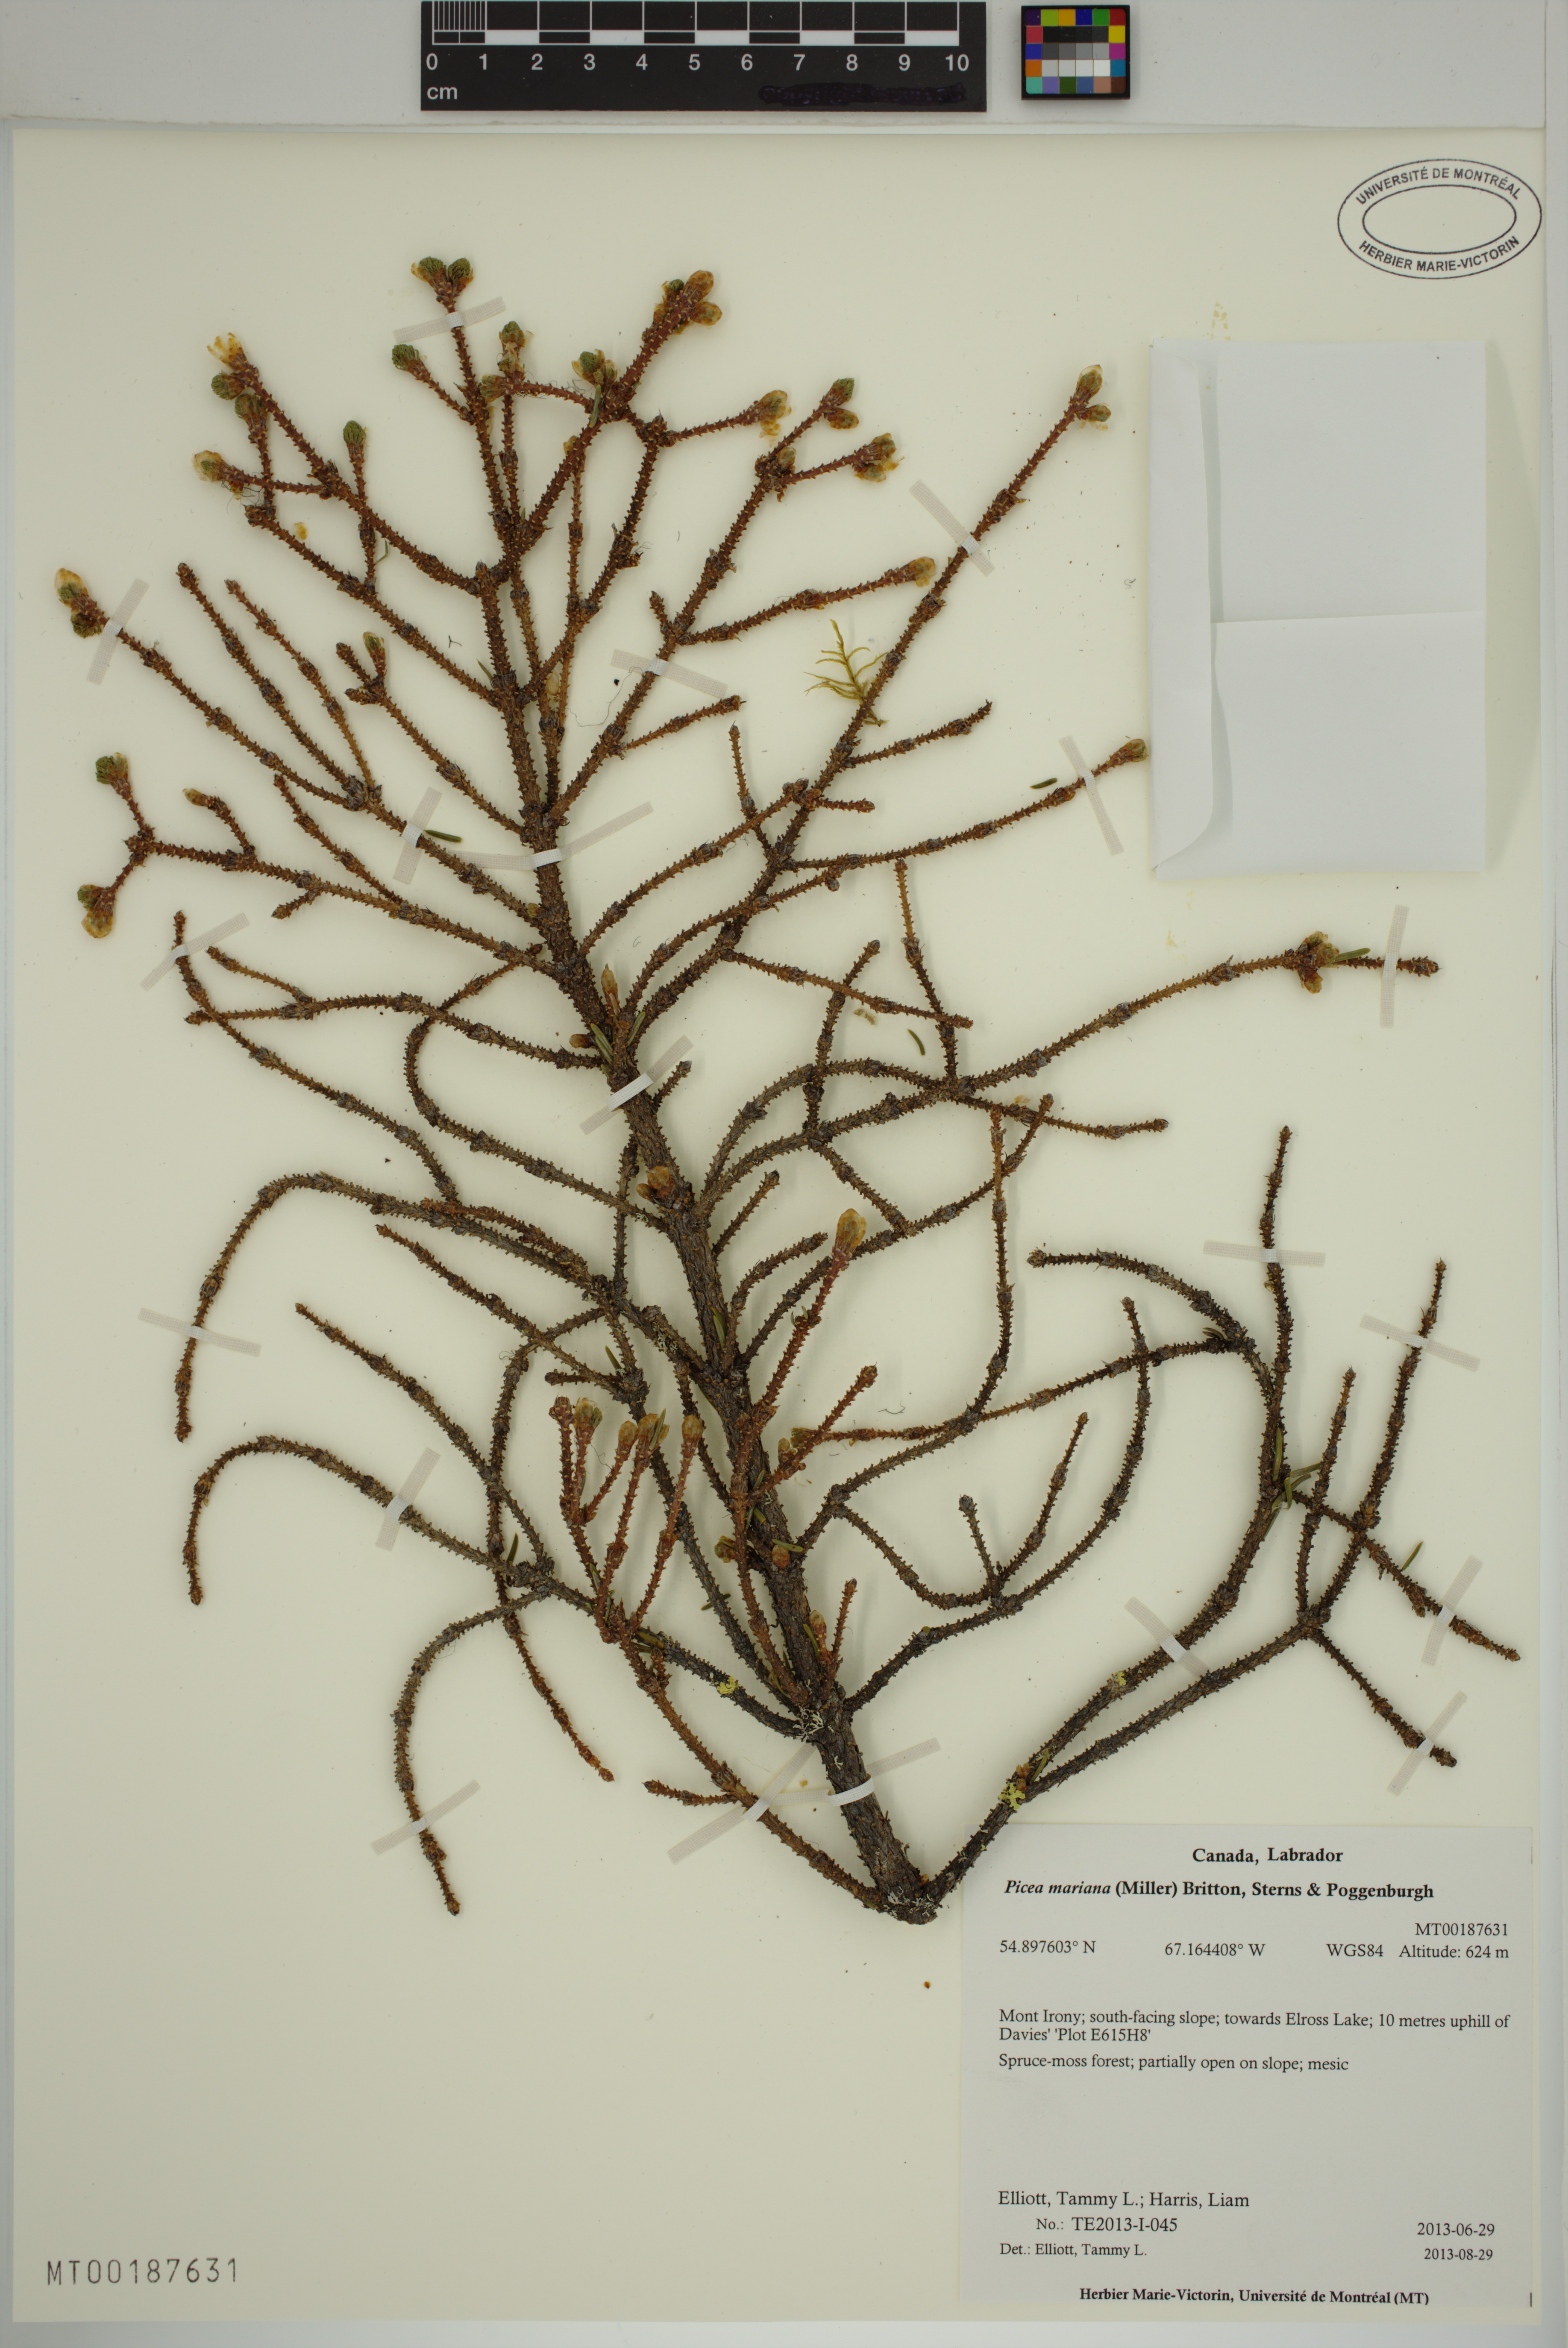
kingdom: Plantae
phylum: Tracheophyta
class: Pinopsida
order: Pinales
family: Pinaceae
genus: Picea
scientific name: Picea mariana
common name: Black spruce
